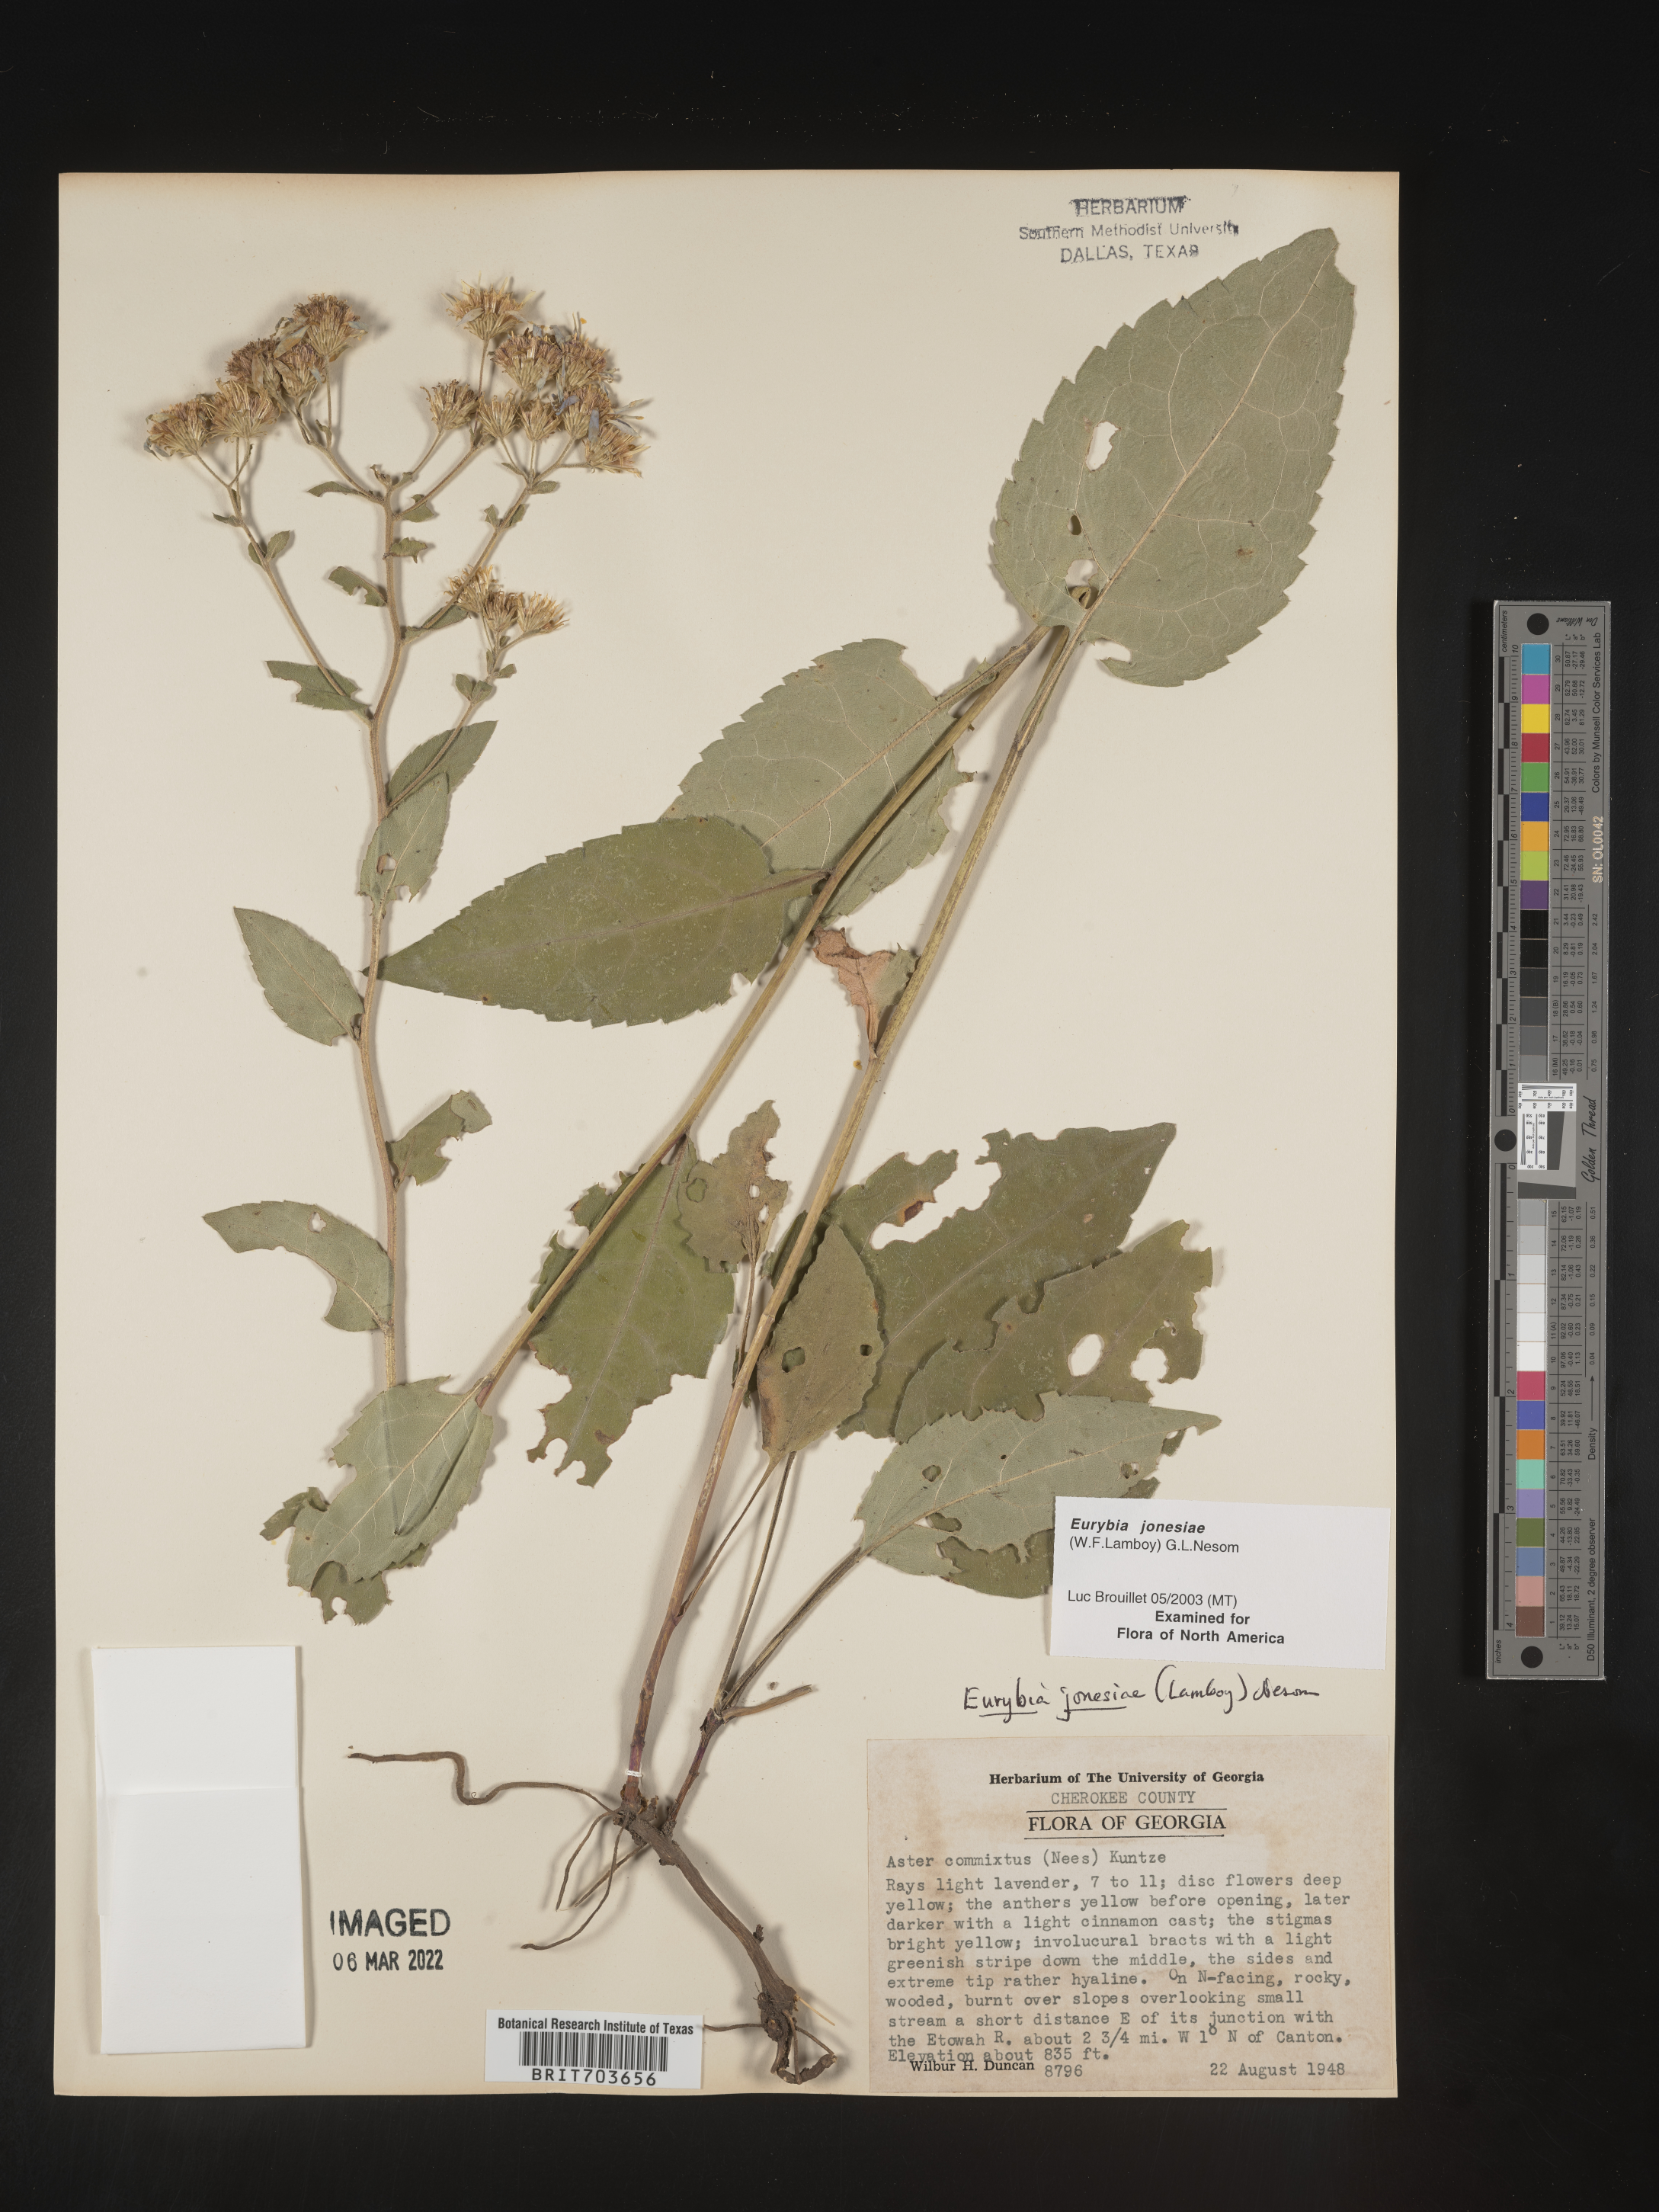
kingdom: Plantae
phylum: Tracheophyta
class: Magnoliopsida
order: Asterales
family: Asteraceae
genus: Eurybia
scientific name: Eurybia jonesiae
